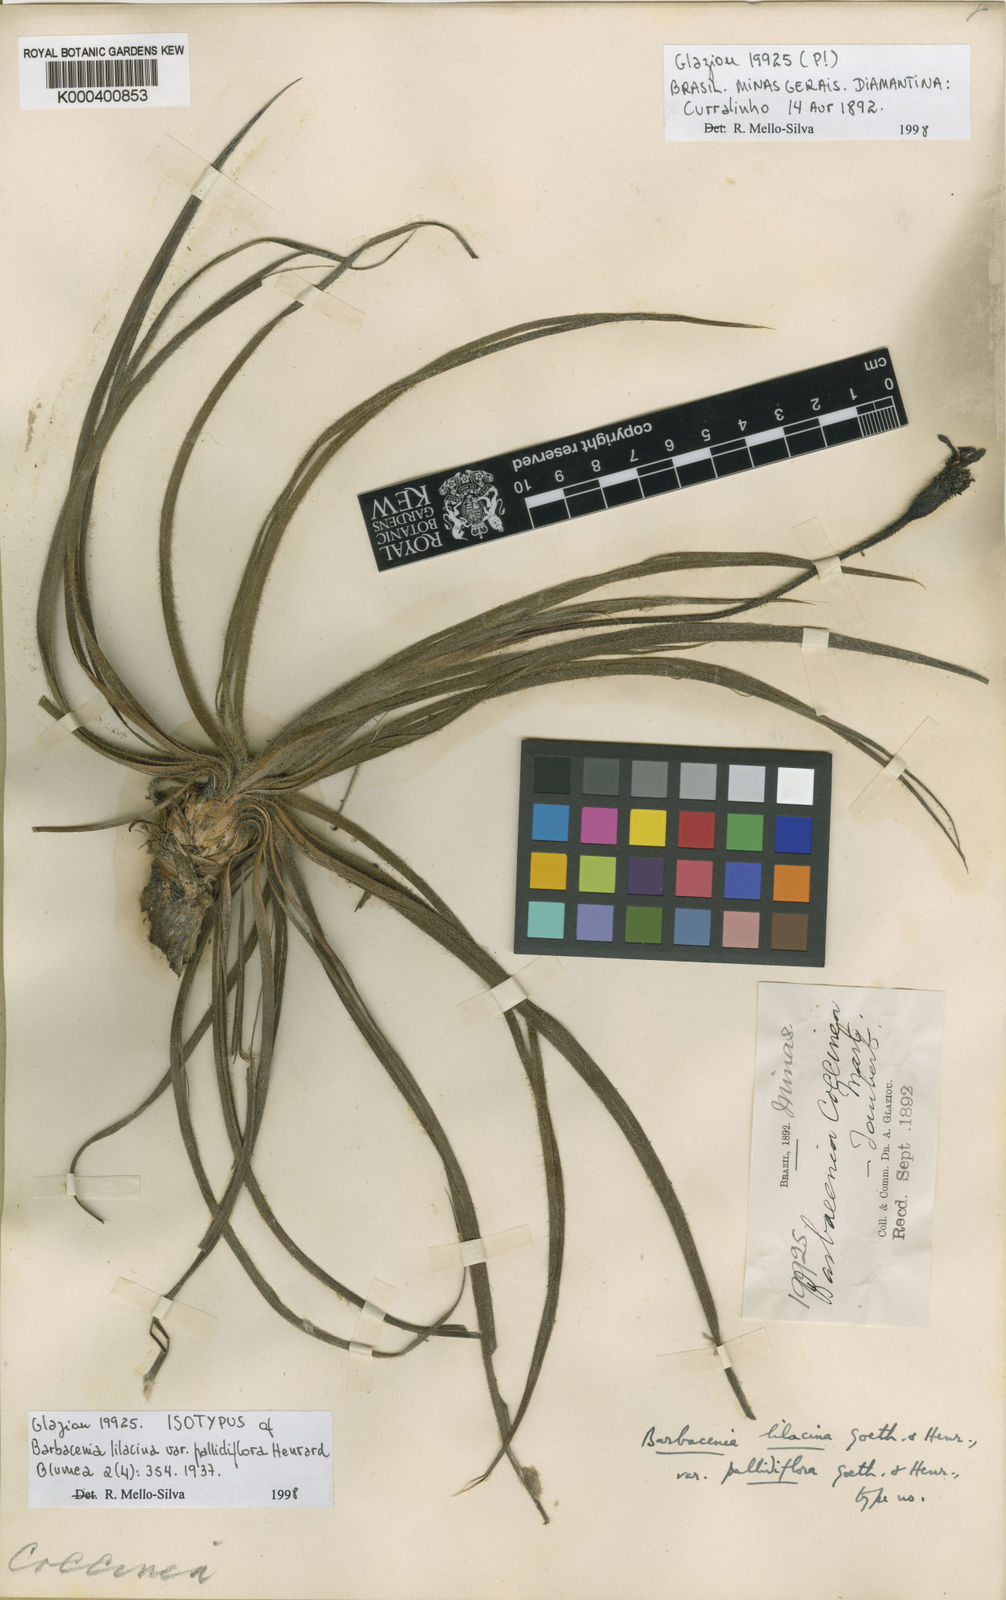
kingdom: Plantae
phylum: Tracheophyta
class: Liliopsida
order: Pandanales
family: Velloziaceae
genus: Barbacenia
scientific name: Barbacenia lilacina
